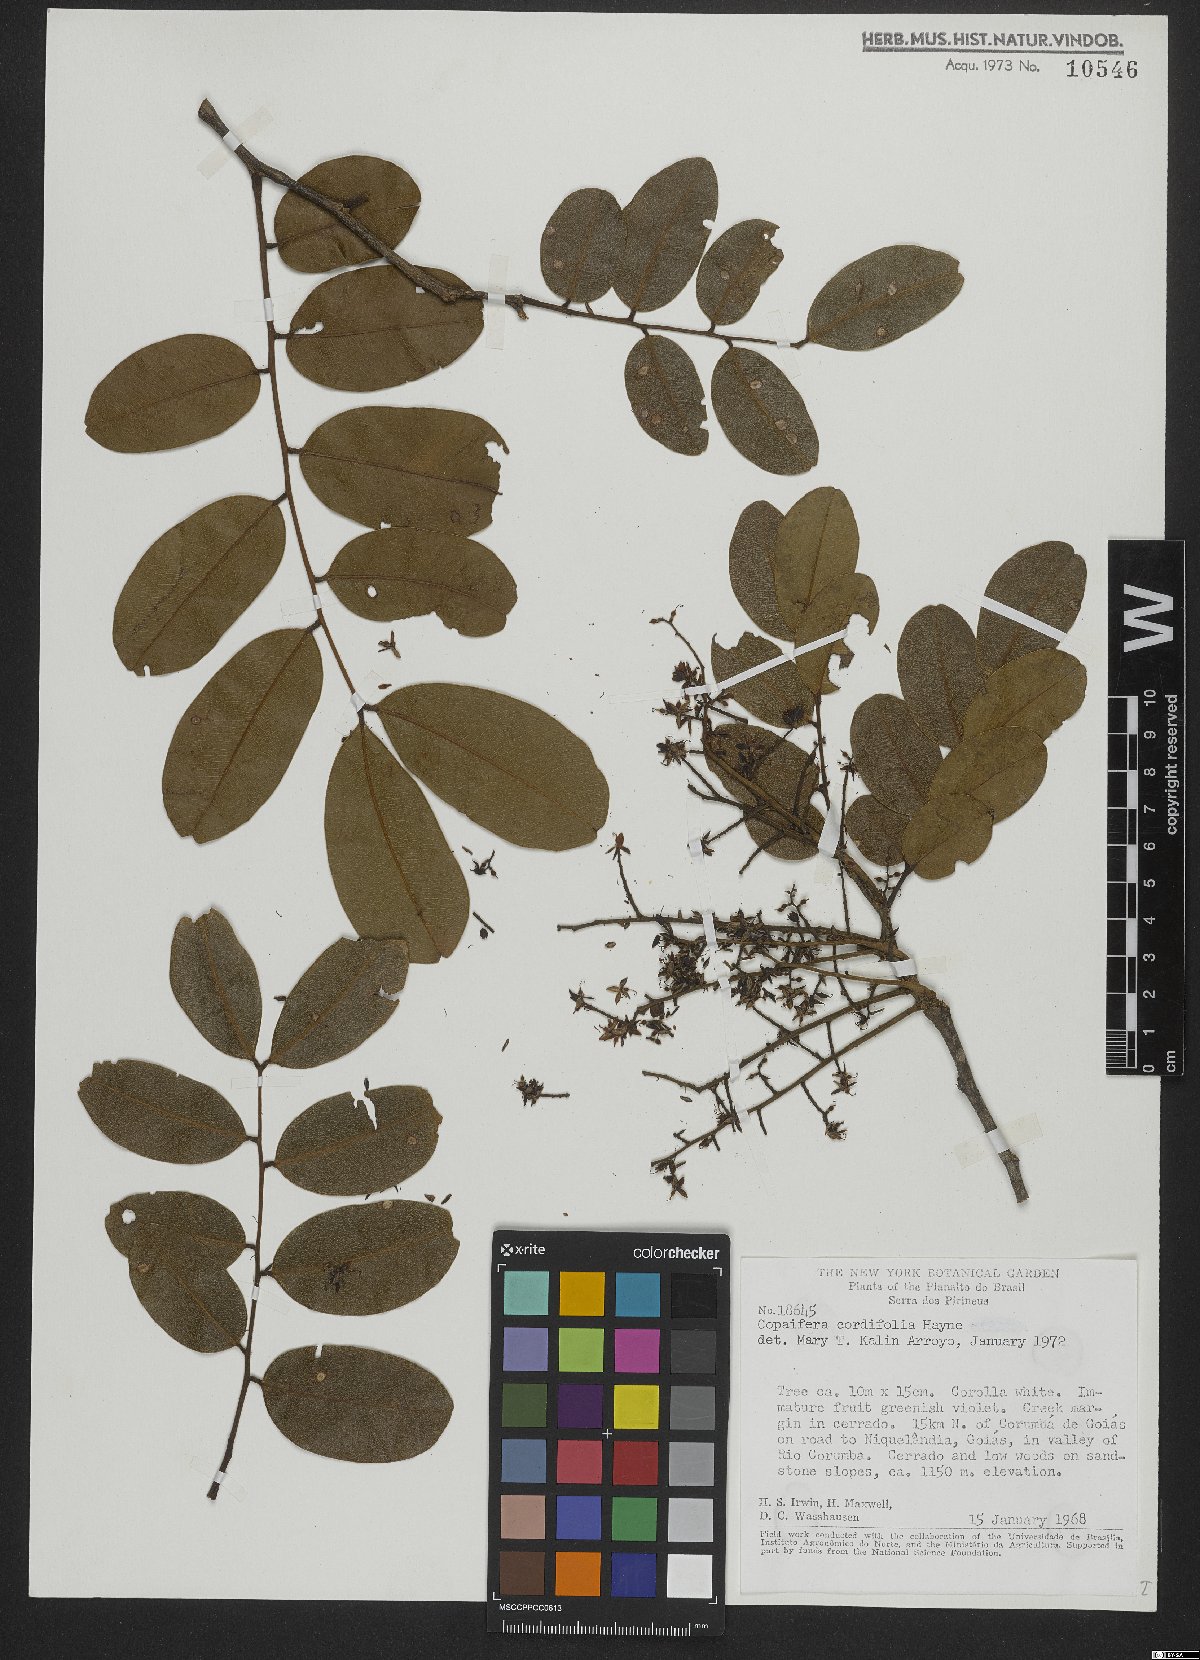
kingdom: Plantae
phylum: Tracheophyta
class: Magnoliopsida
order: Fabales
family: Fabaceae
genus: Copaifera
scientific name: Copaifera coriacea
